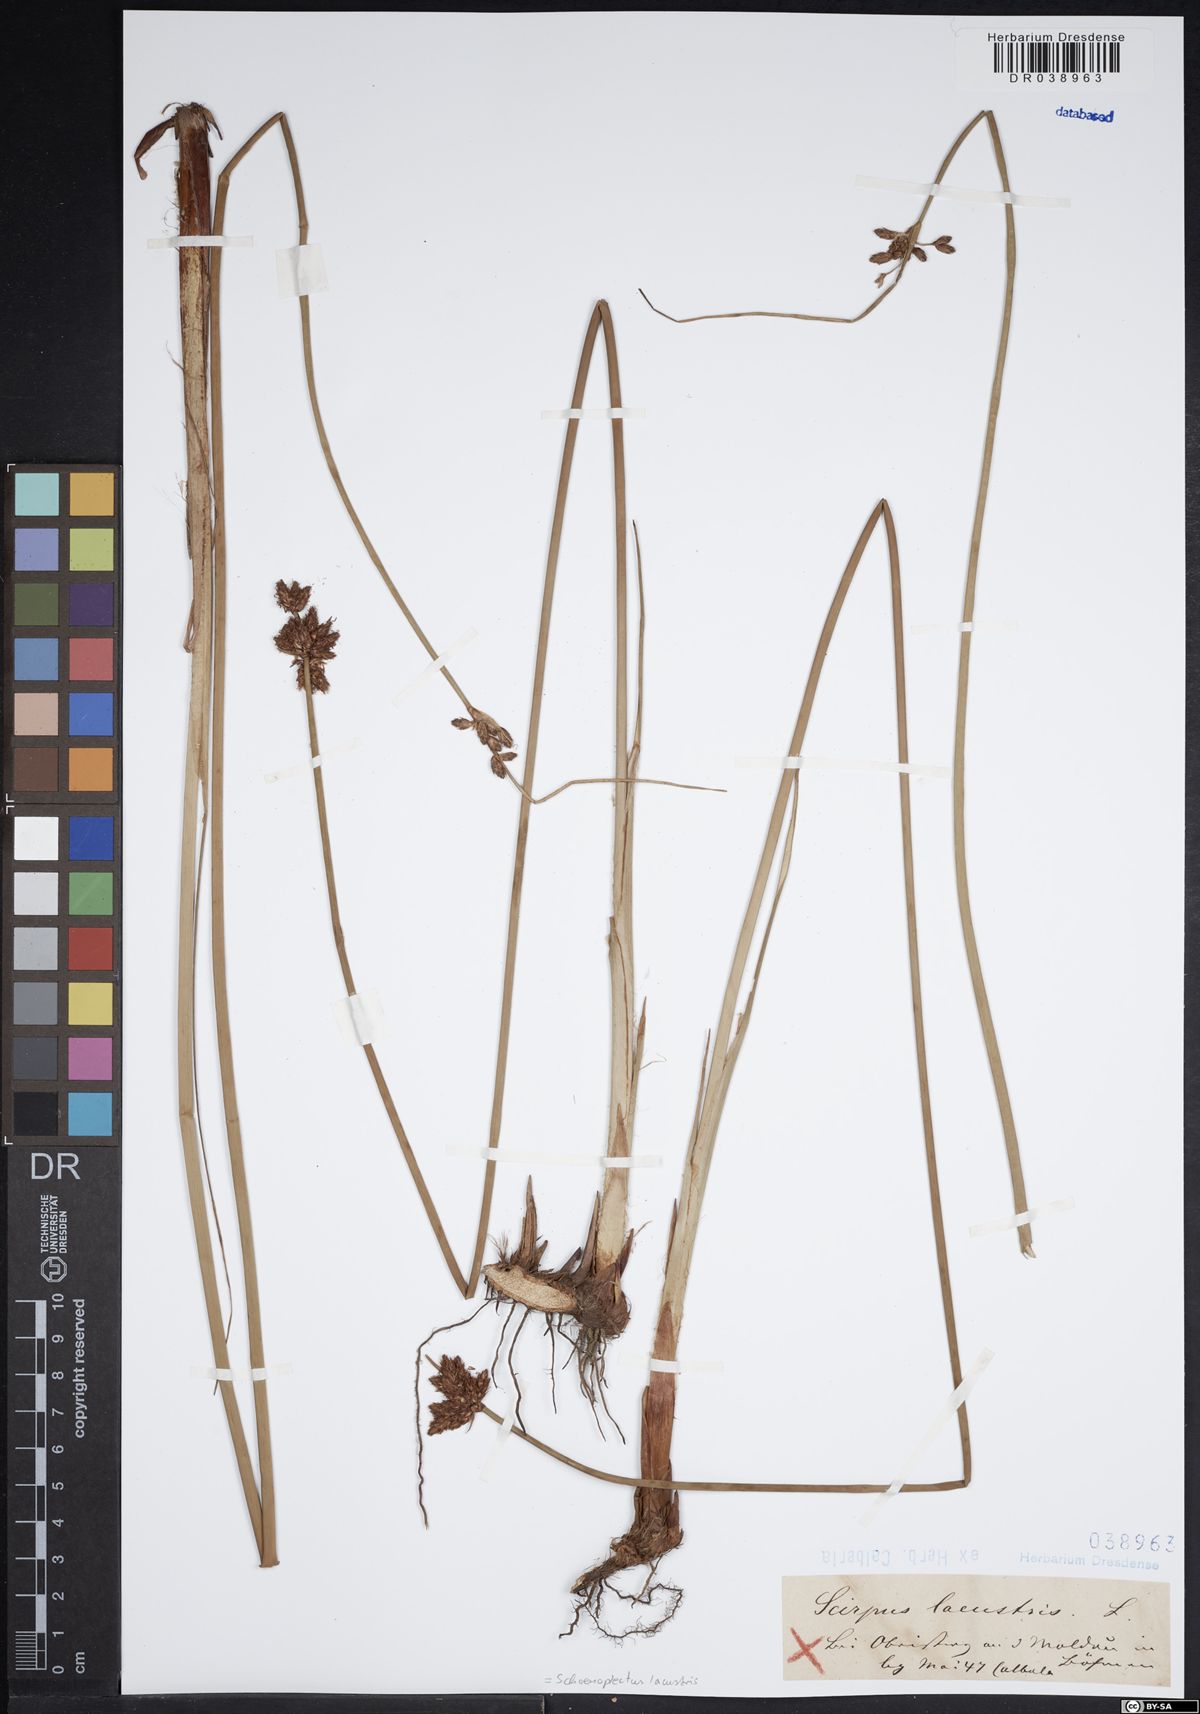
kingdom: Plantae
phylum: Tracheophyta
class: Liliopsida
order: Poales
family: Cyperaceae
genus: Schoenoplectus
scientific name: Schoenoplectus lacustris
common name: Common club-rush
